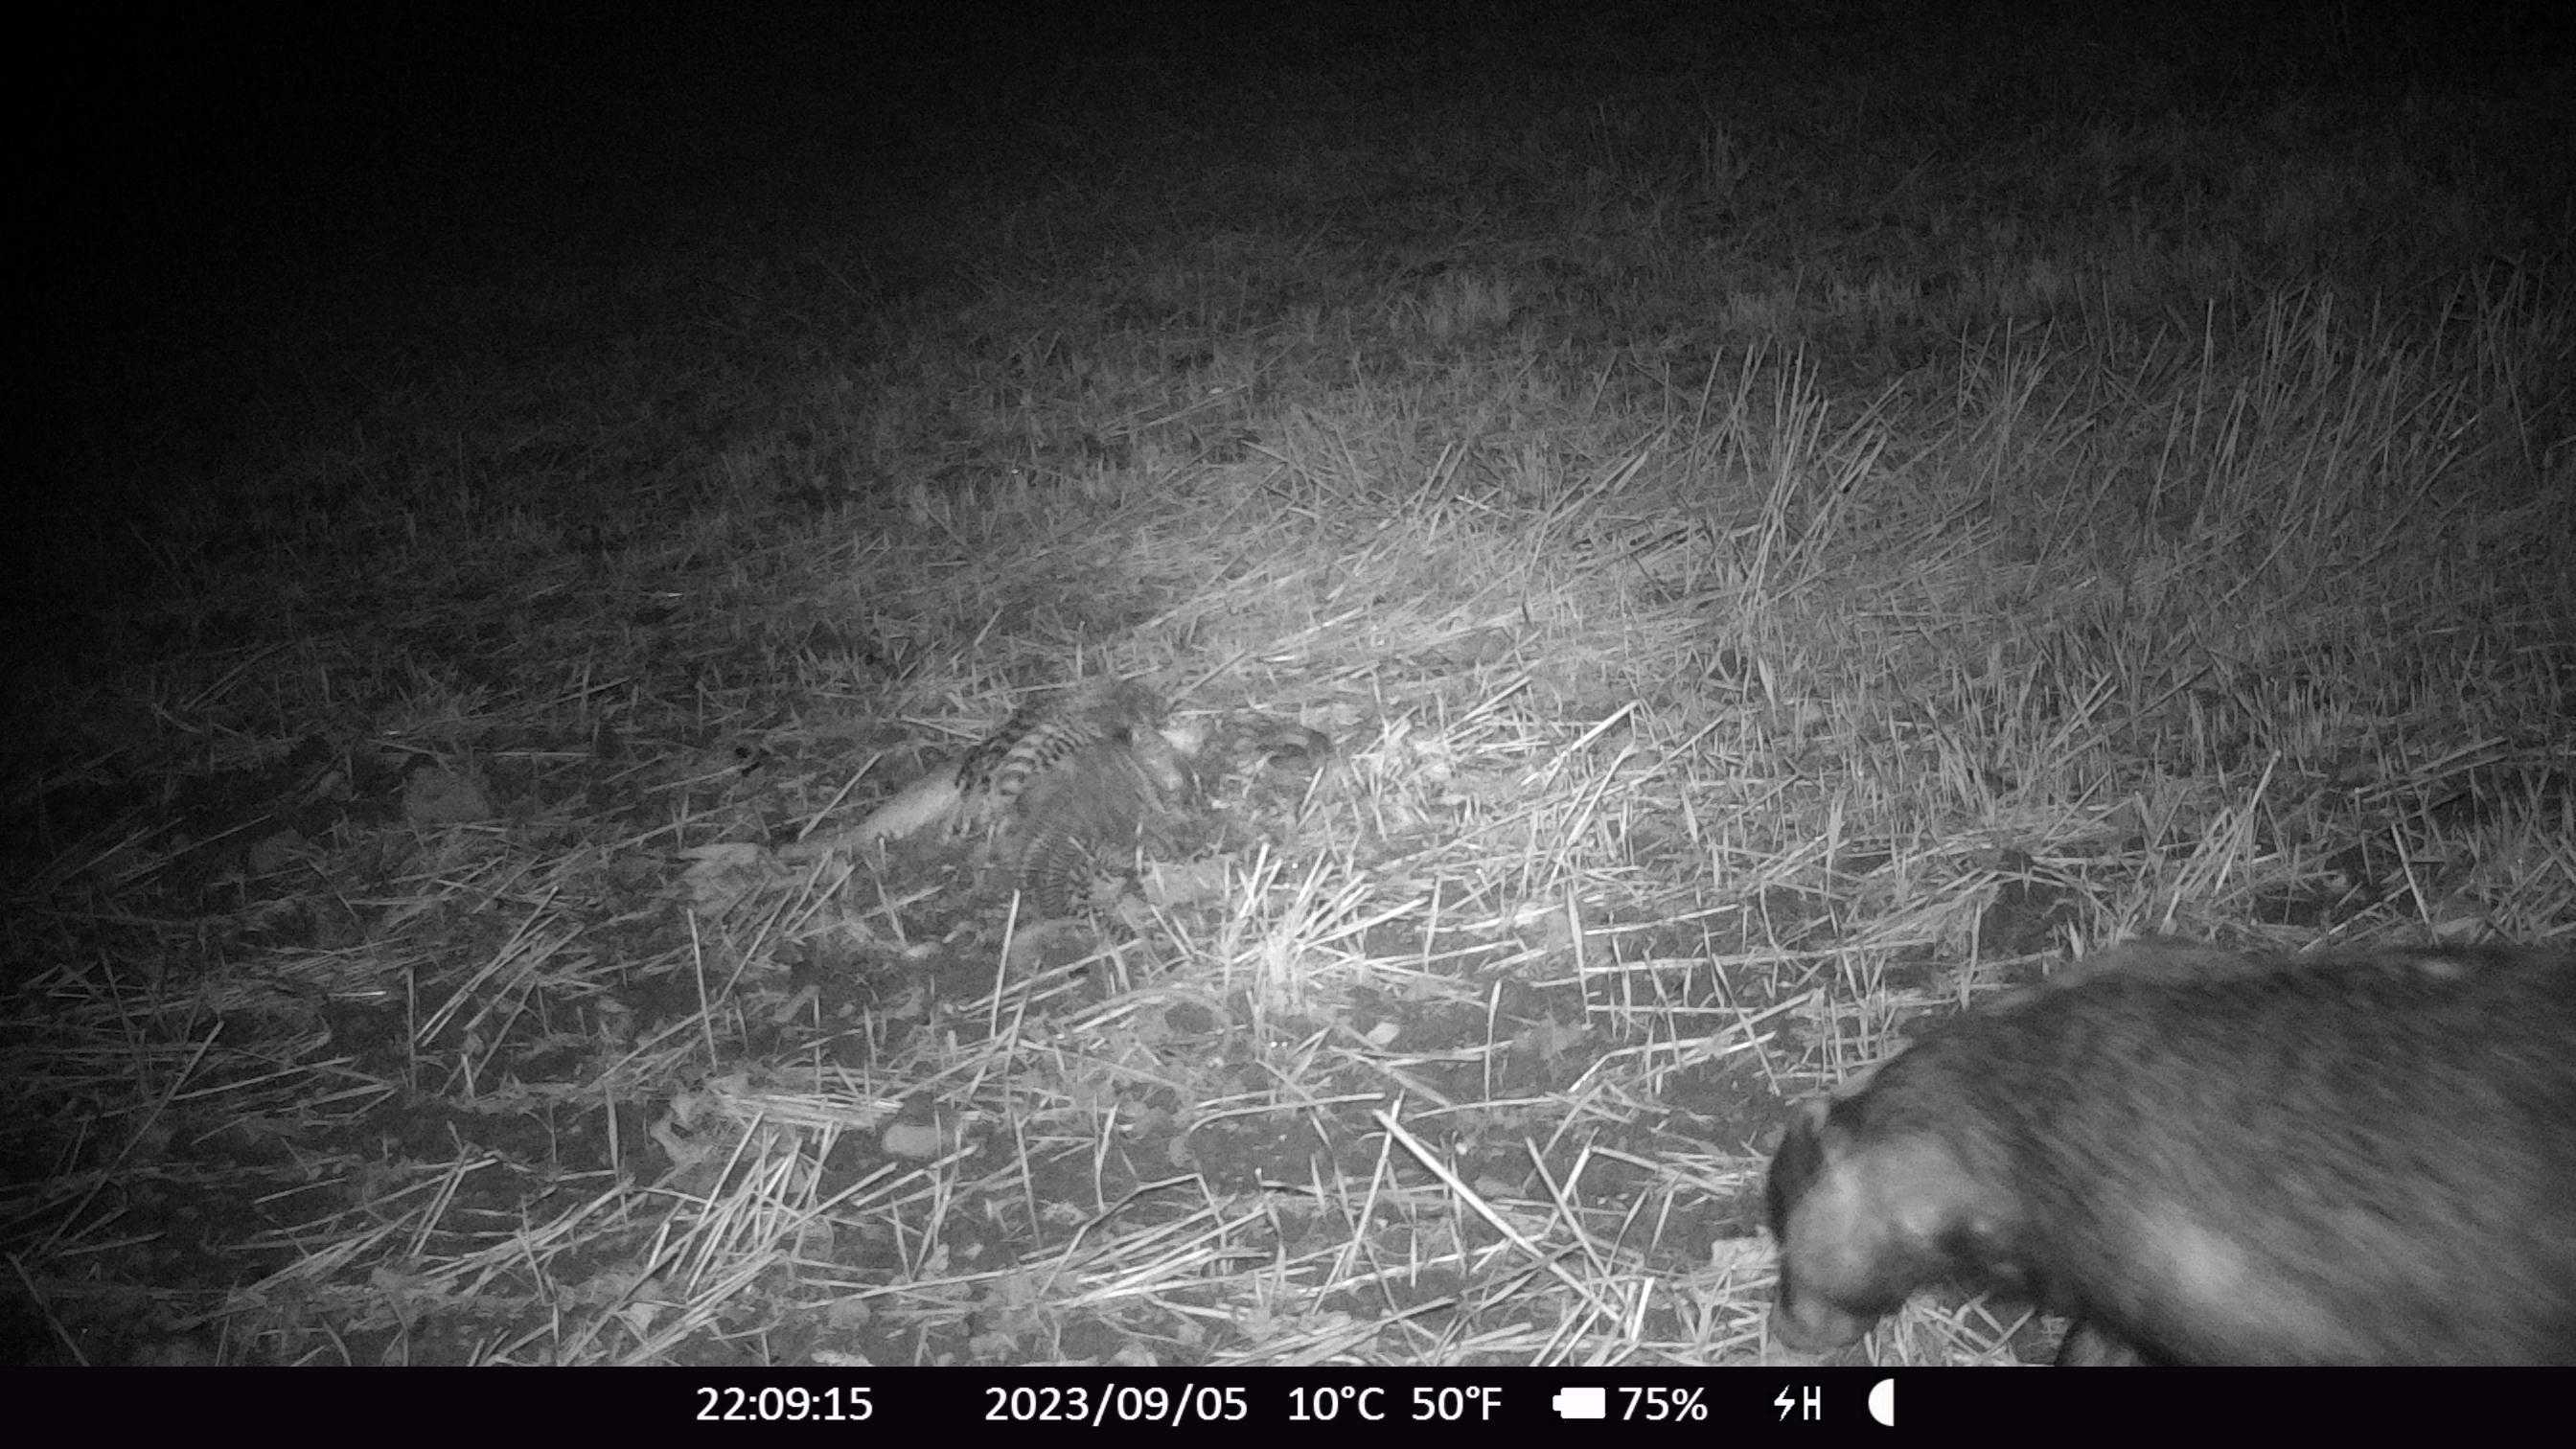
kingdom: Animalia
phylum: Chordata
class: Mammalia
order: Carnivora
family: Mustelidae
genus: Meles
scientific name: Meles meles
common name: Grævling
